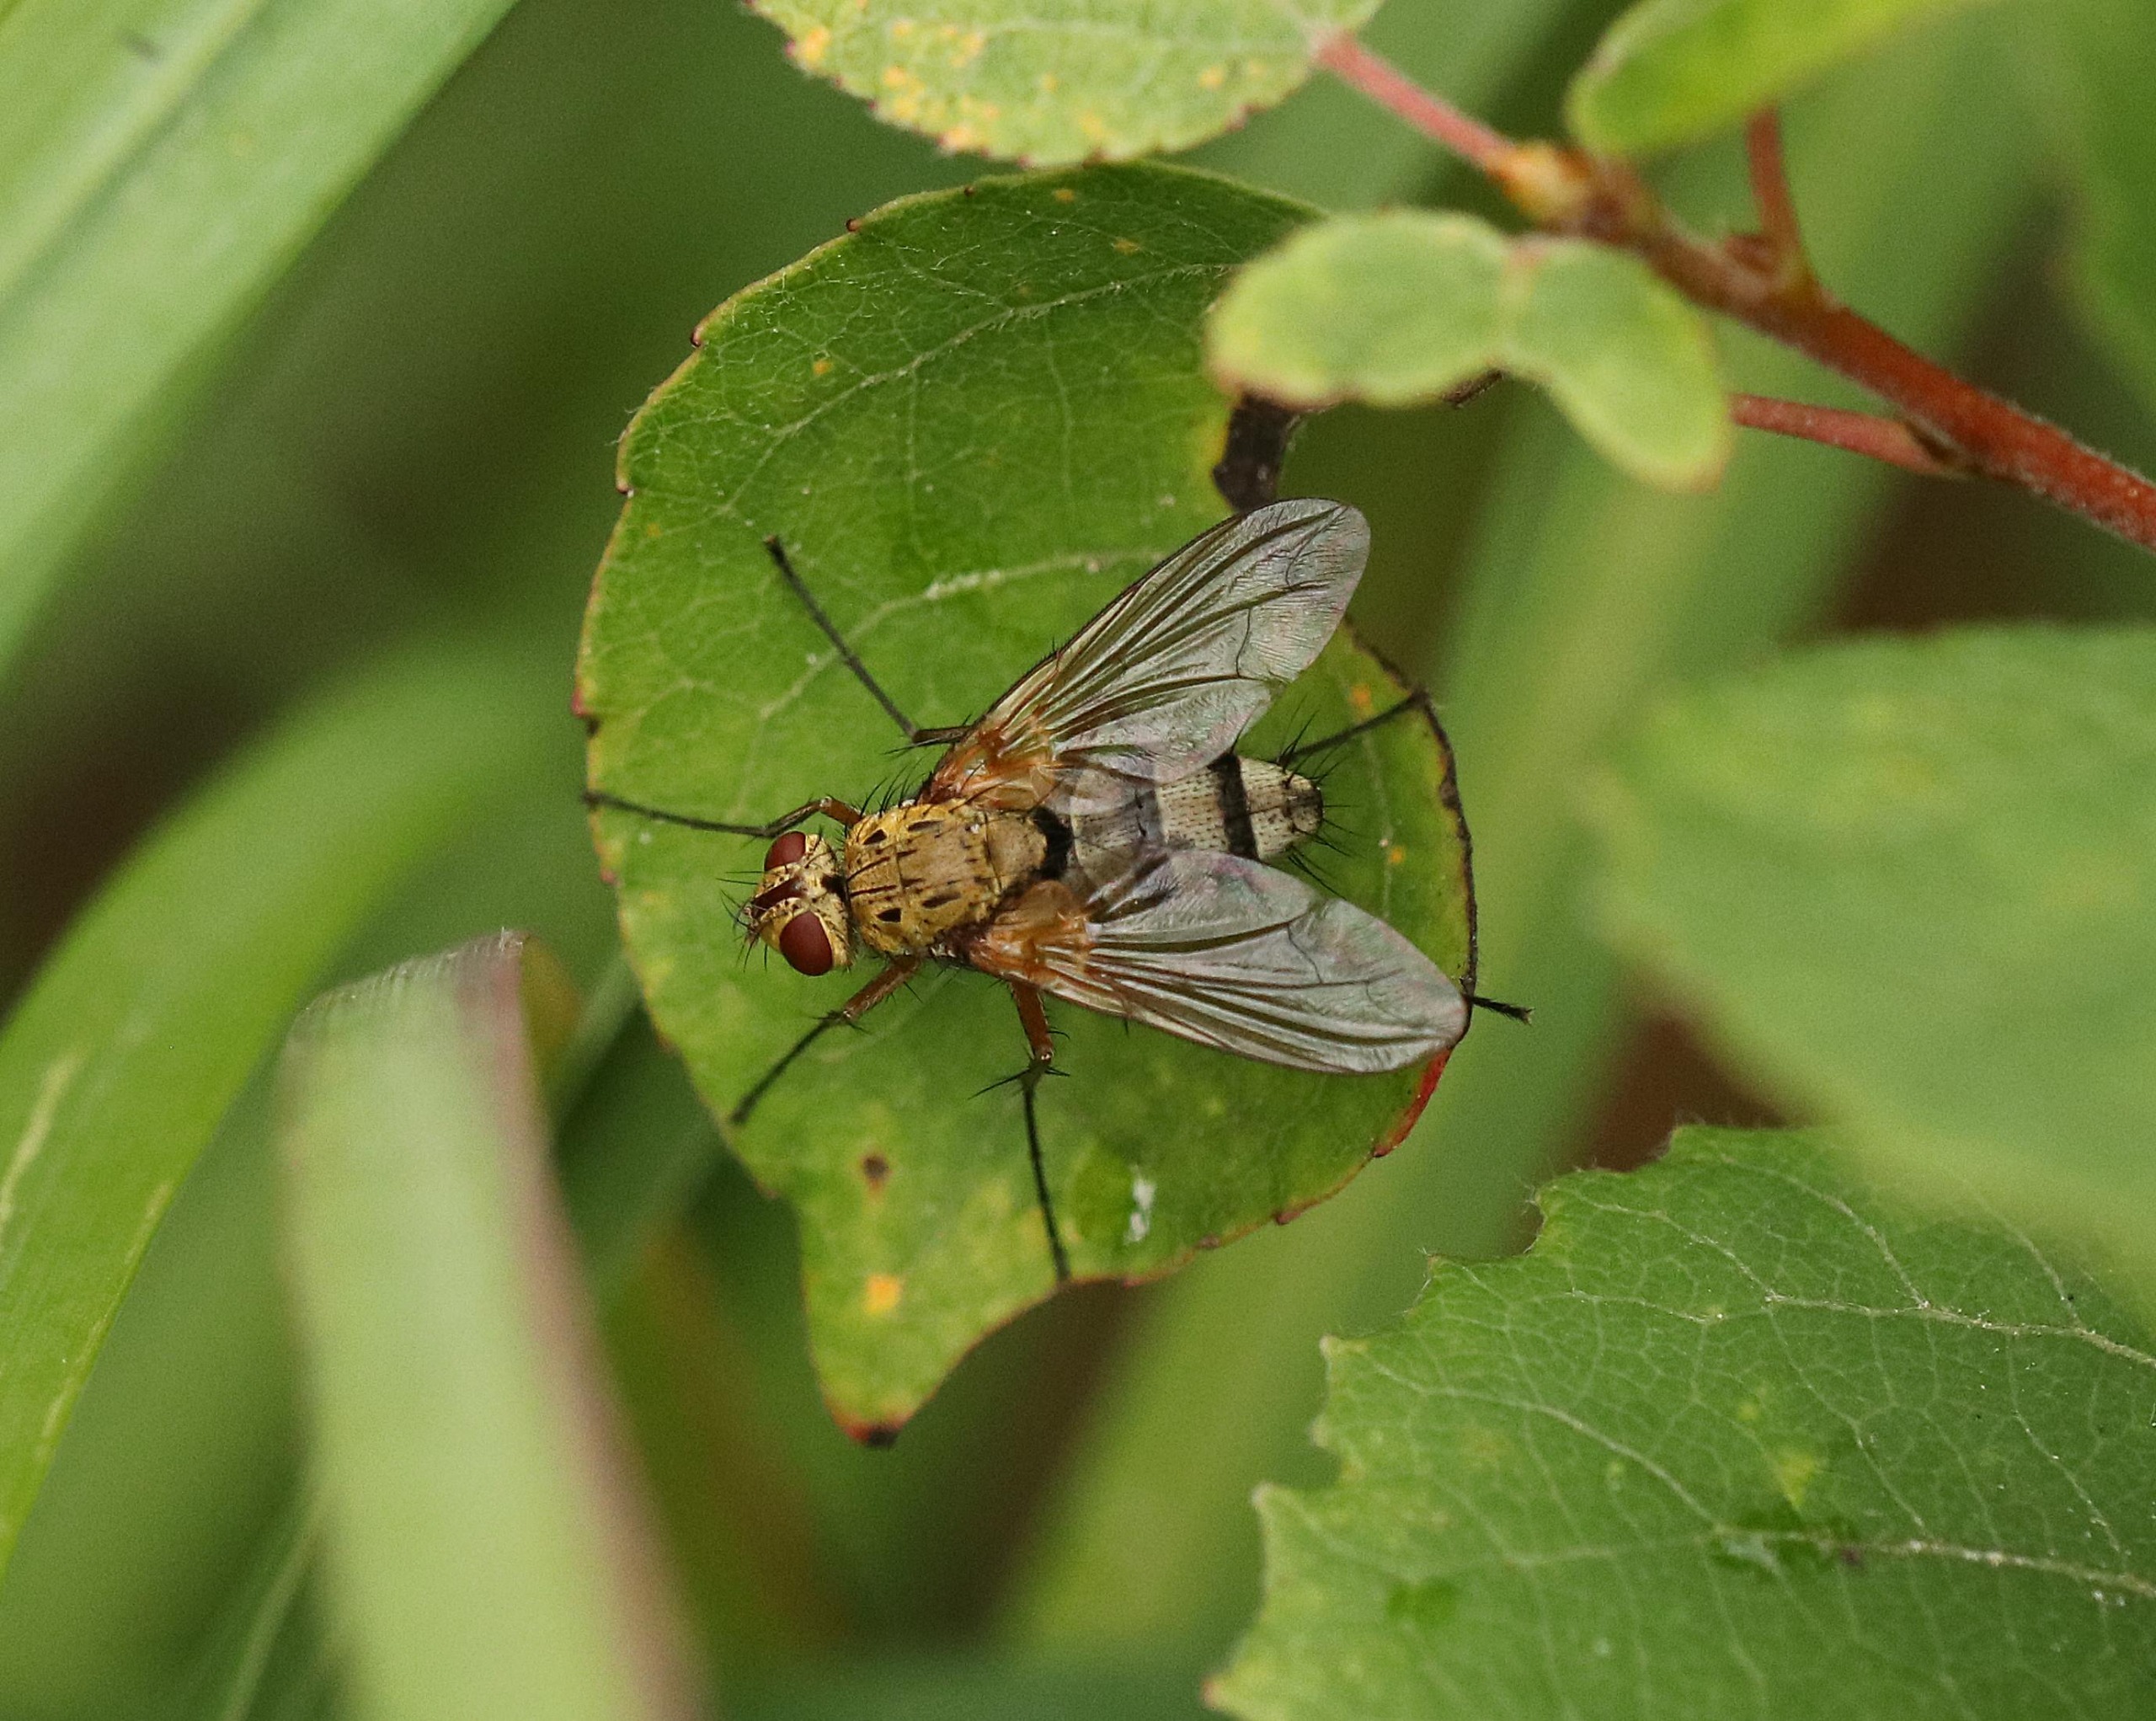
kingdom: Animalia
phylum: Arthropoda
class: Insecta
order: Diptera
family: Tachinidae
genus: Dexiosoma
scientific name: Dexiosoma caninum
